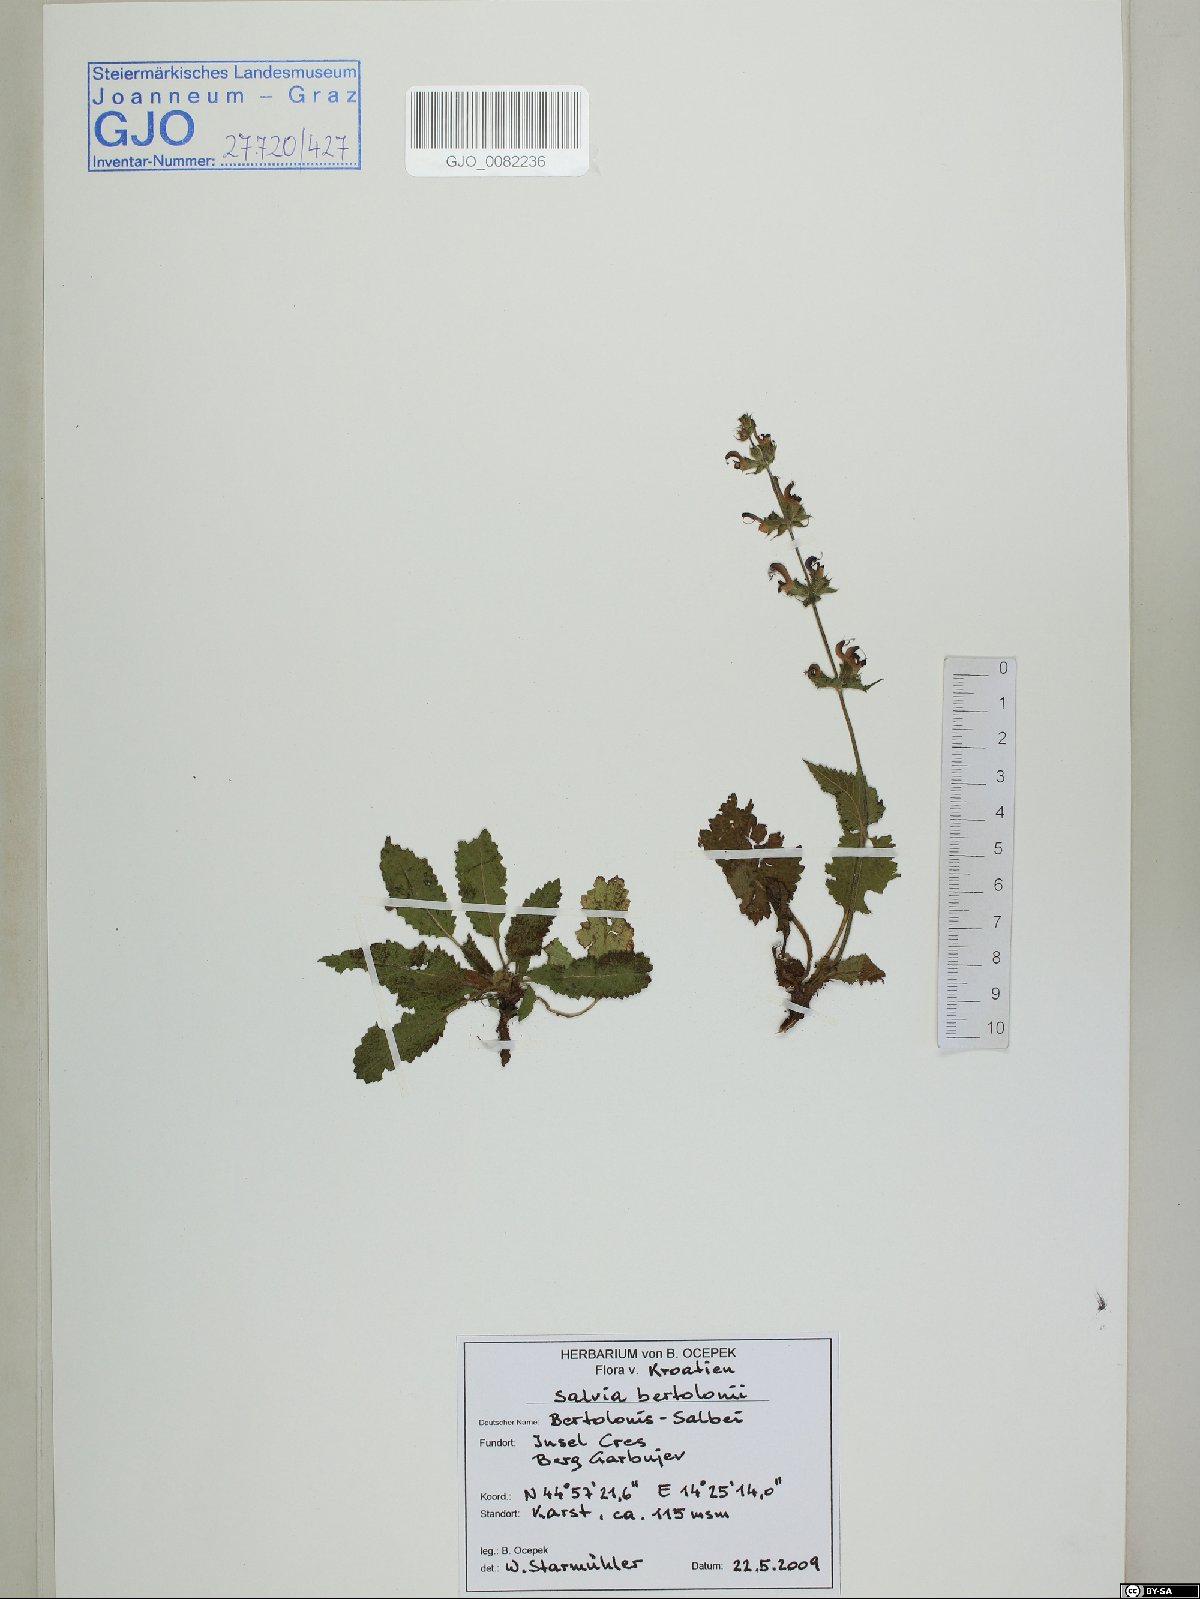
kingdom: Plantae
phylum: Tracheophyta
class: Magnoliopsida
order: Lamiales
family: Lamiaceae
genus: Salvia
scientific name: Salvia pratensis
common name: Meadow sage
